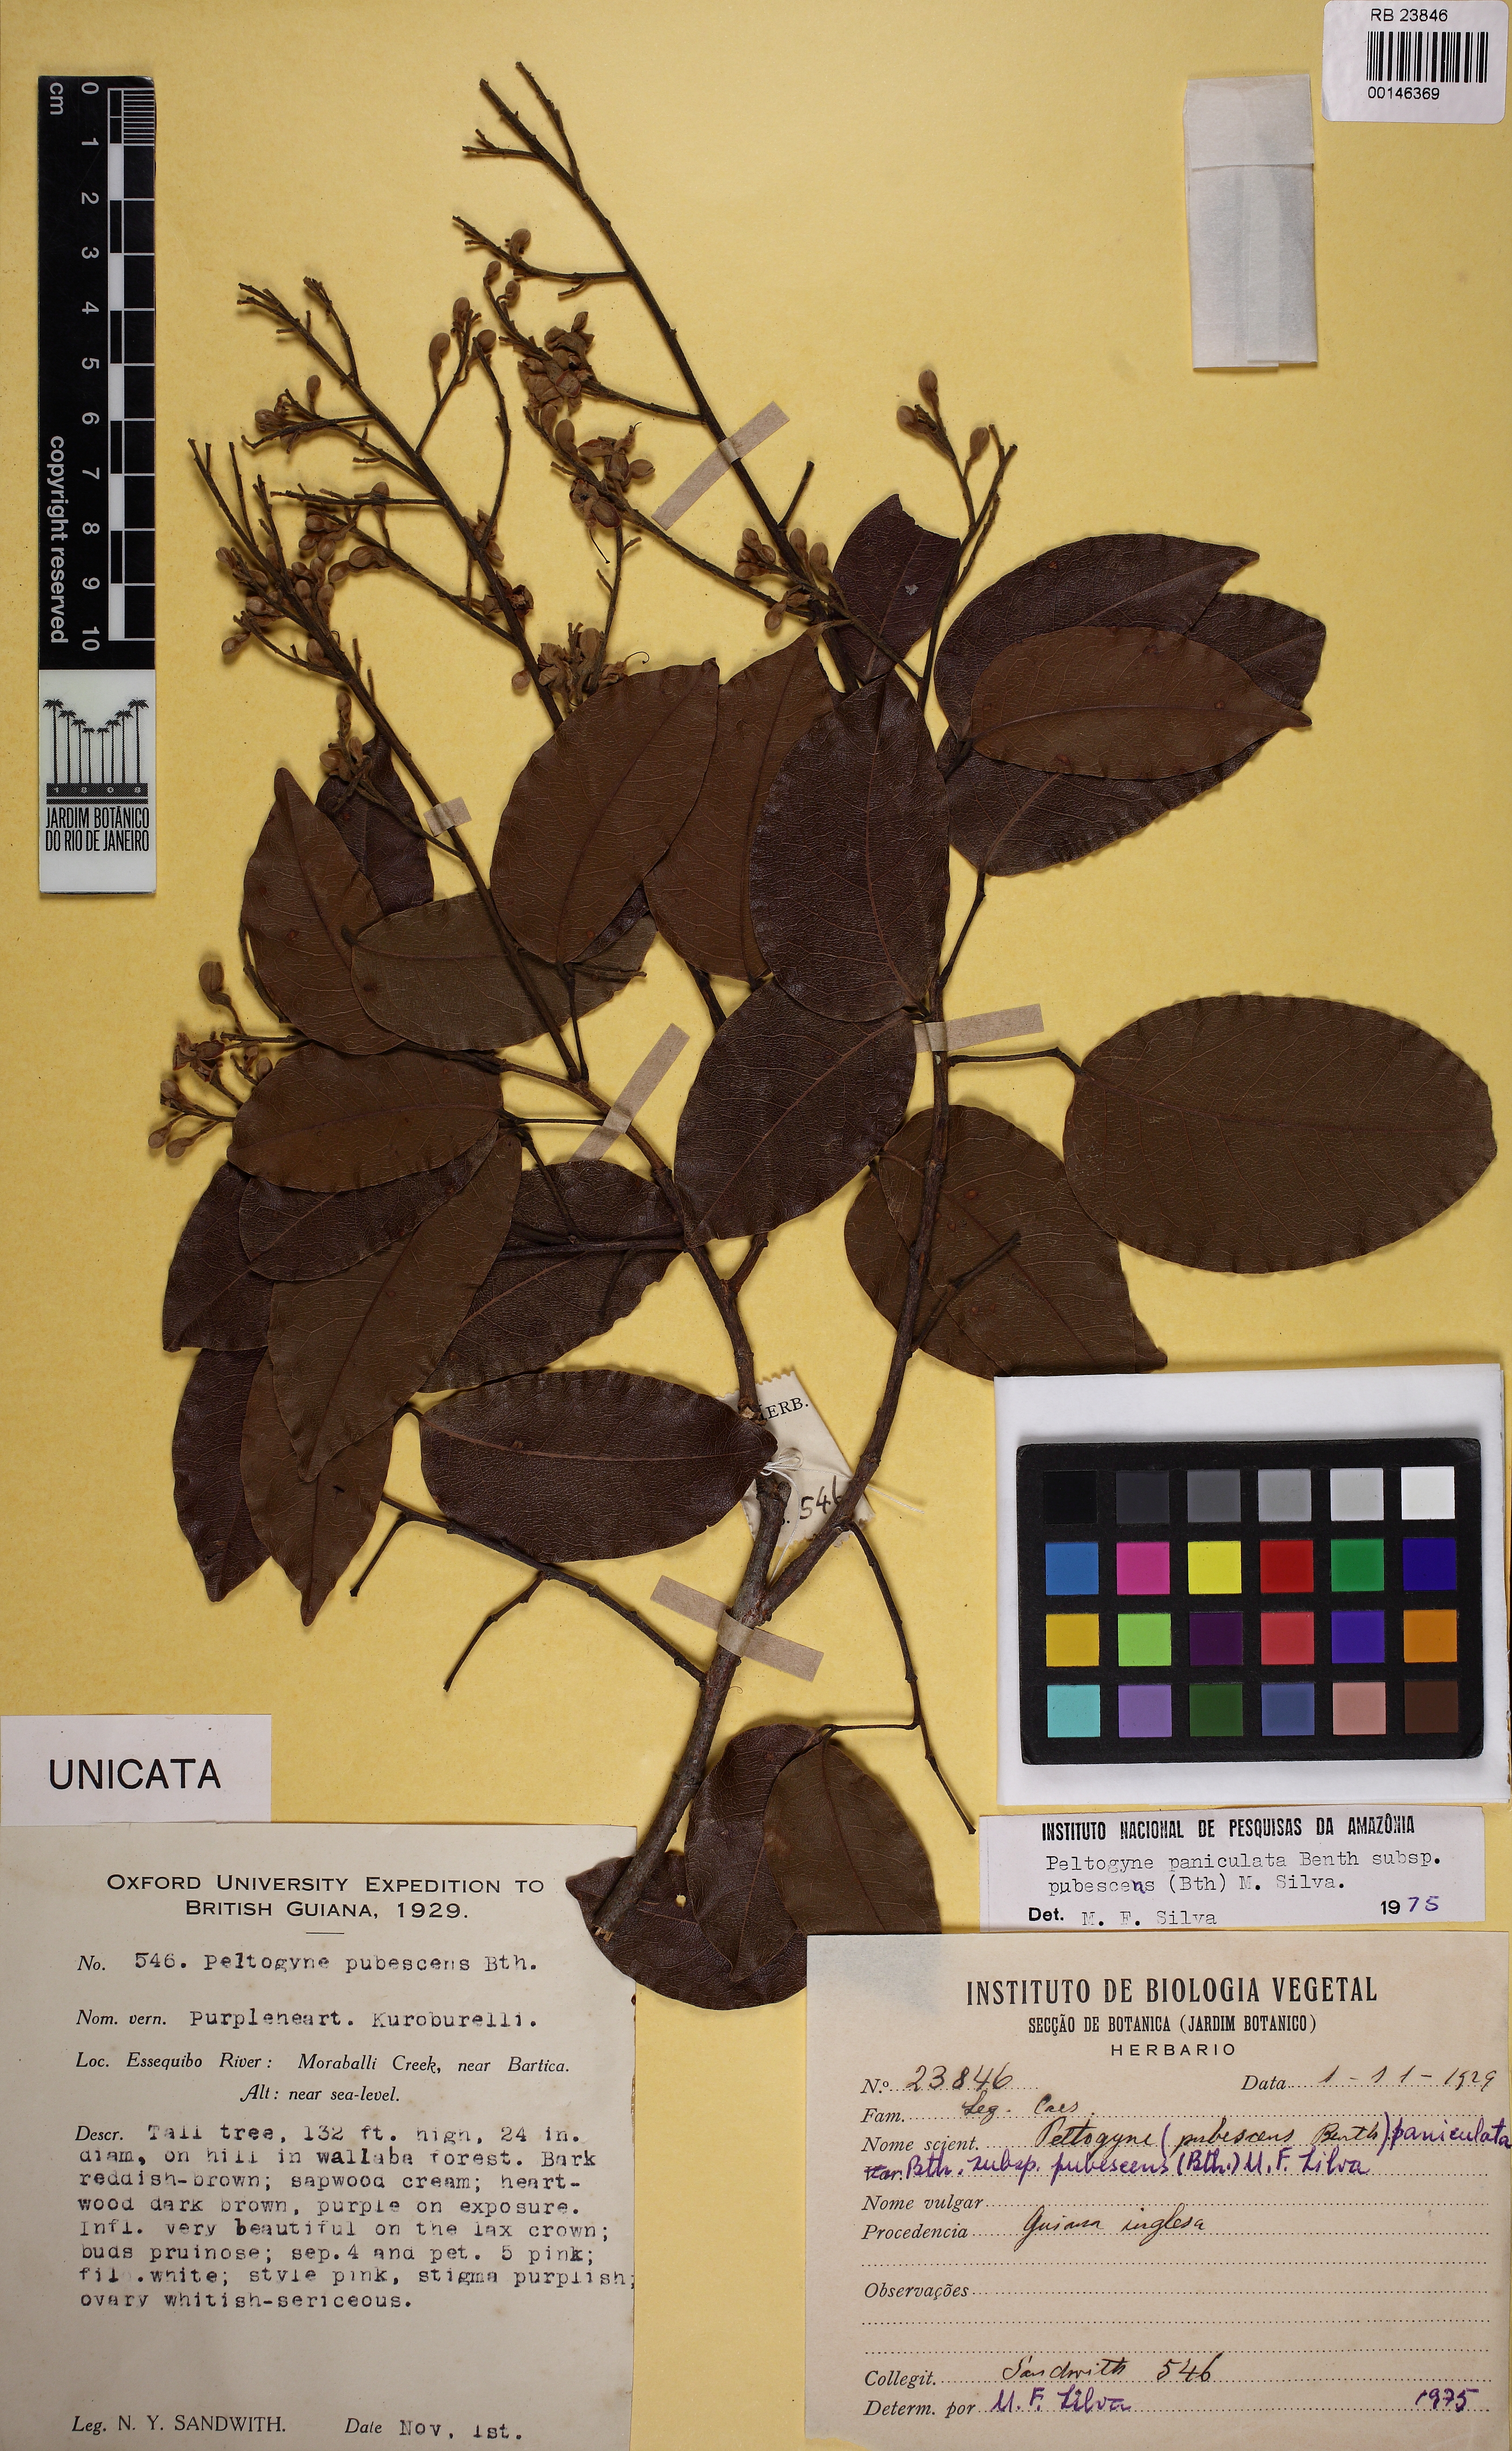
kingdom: Plantae
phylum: Tracheophyta
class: Magnoliopsida
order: Fabales
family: Fabaceae
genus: Peltogyne
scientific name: Peltogyne paniculata
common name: Purpleheart
